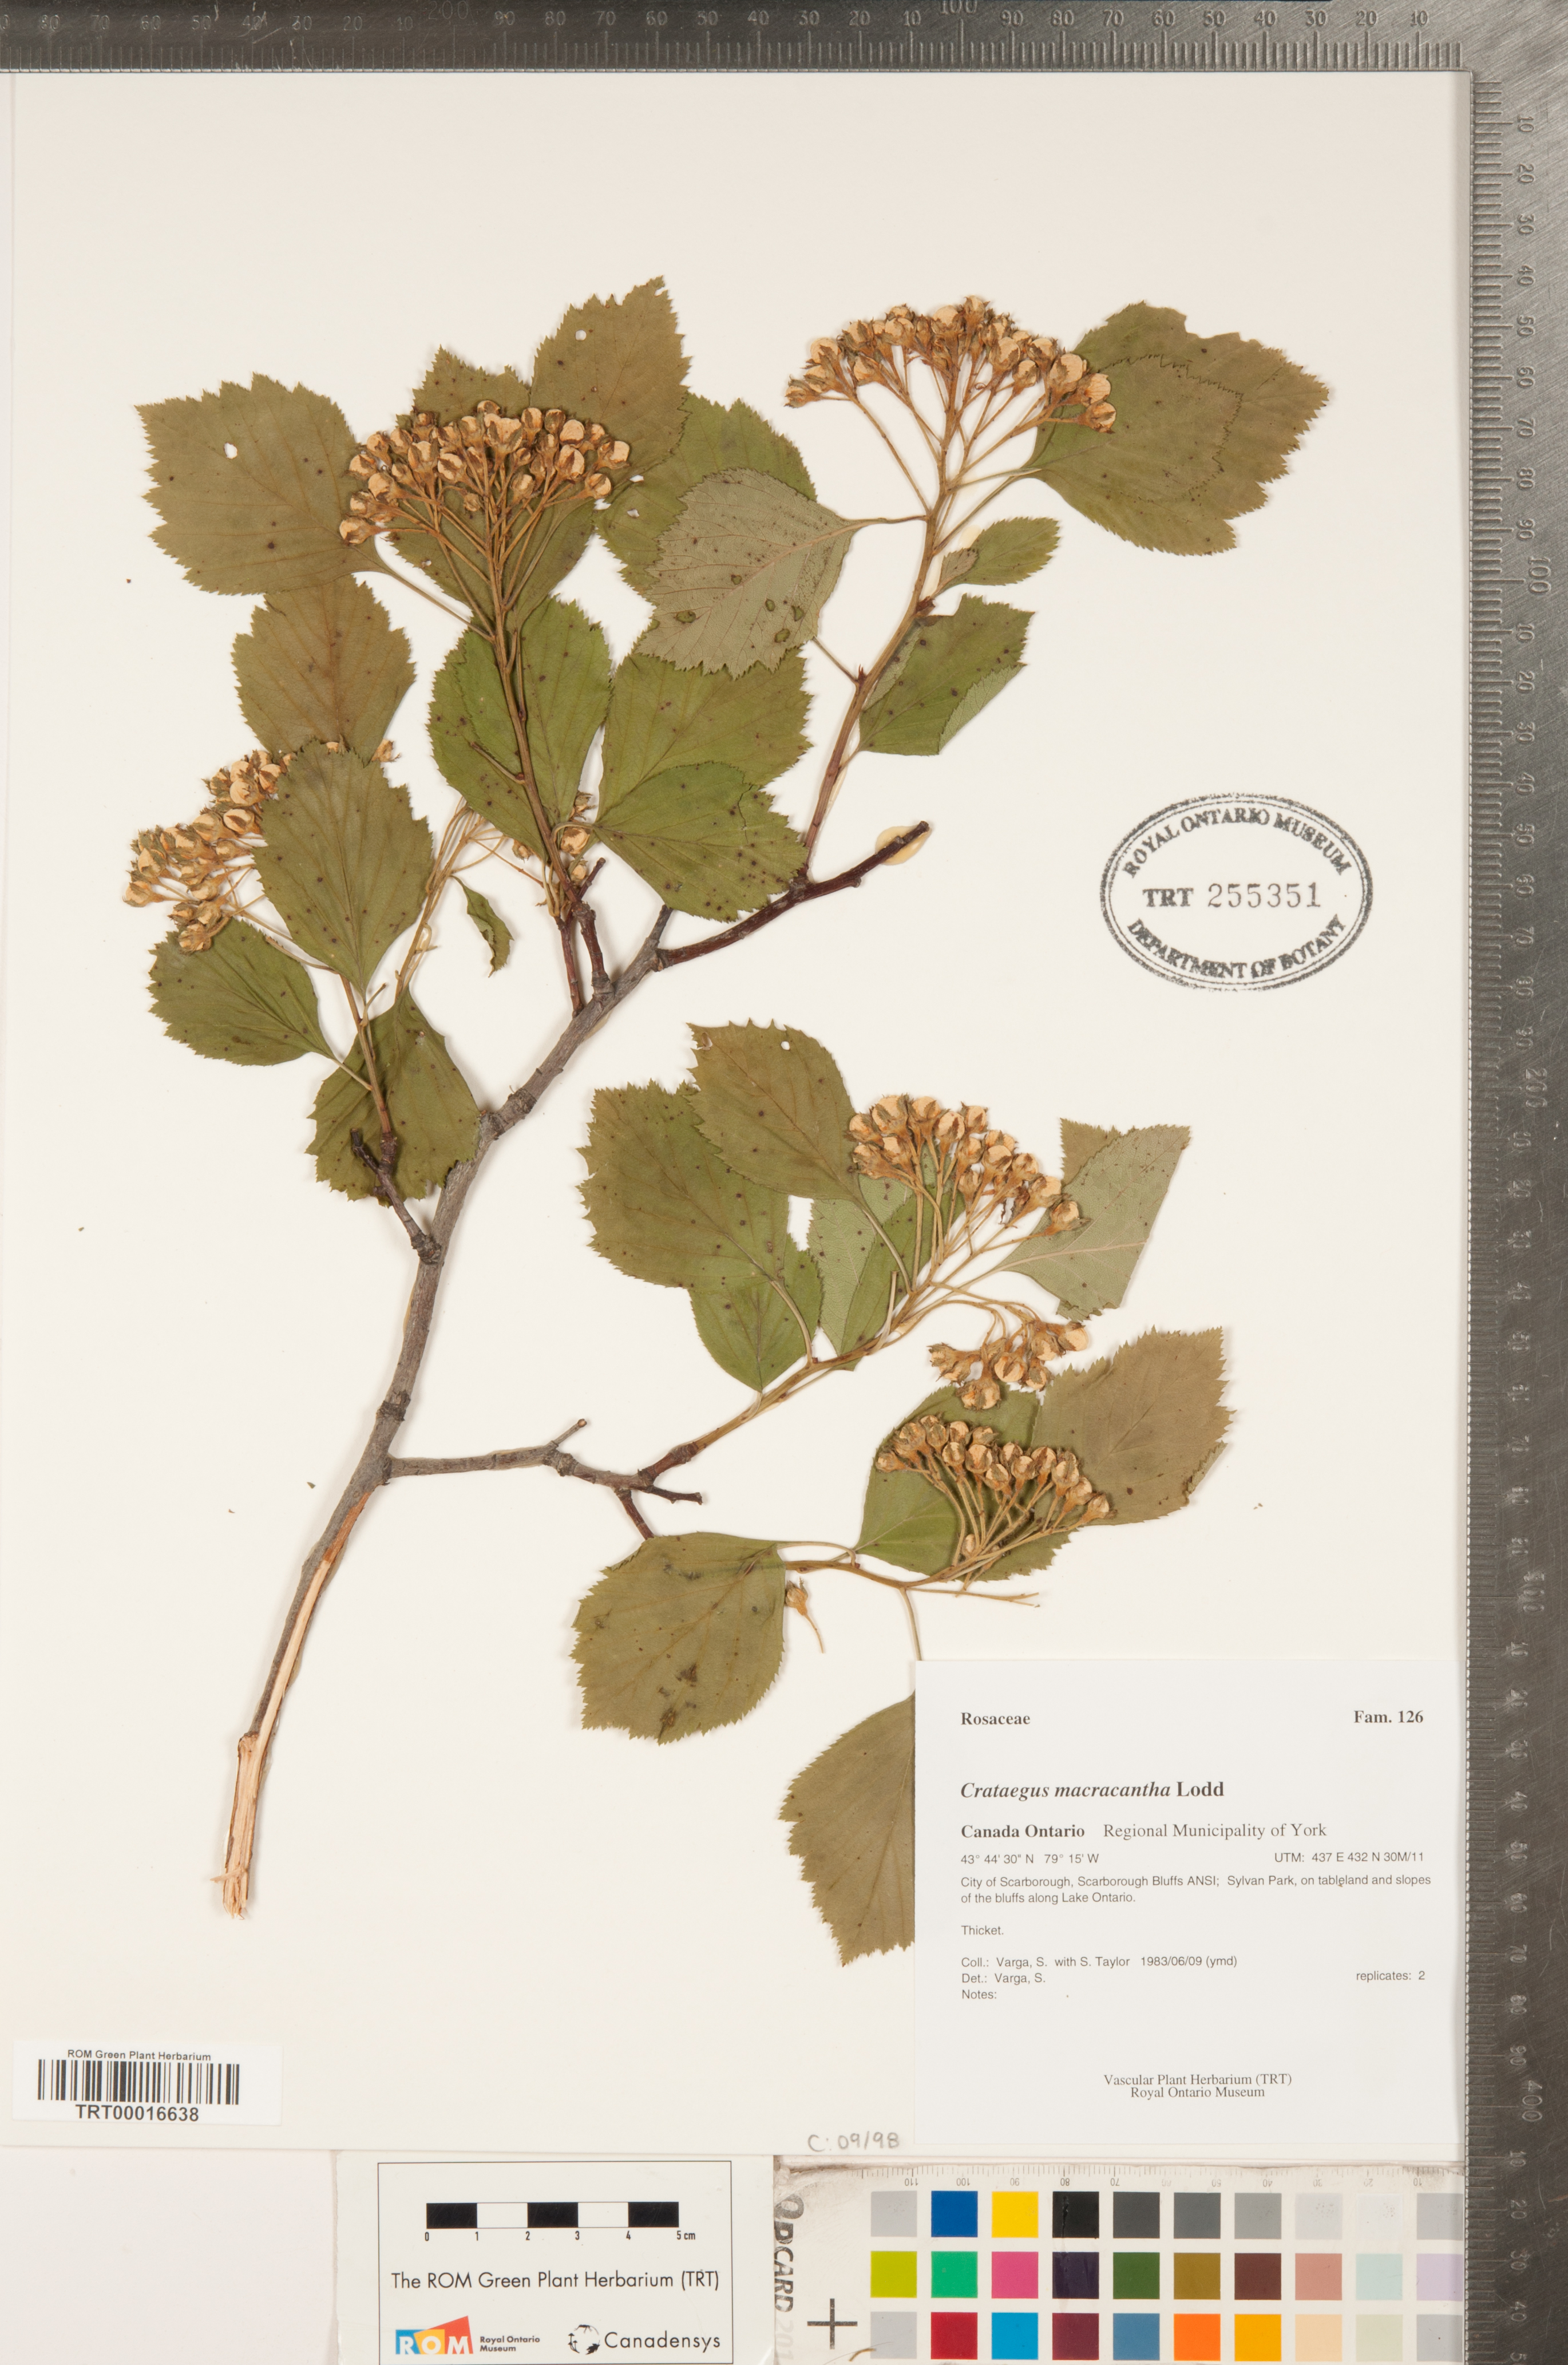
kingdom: Plantae
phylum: Tracheophyta
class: Magnoliopsida
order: Rosales
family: Rosaceae
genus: Crataegus
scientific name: Crataegus macracantha
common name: Large-thorn hawthorn
